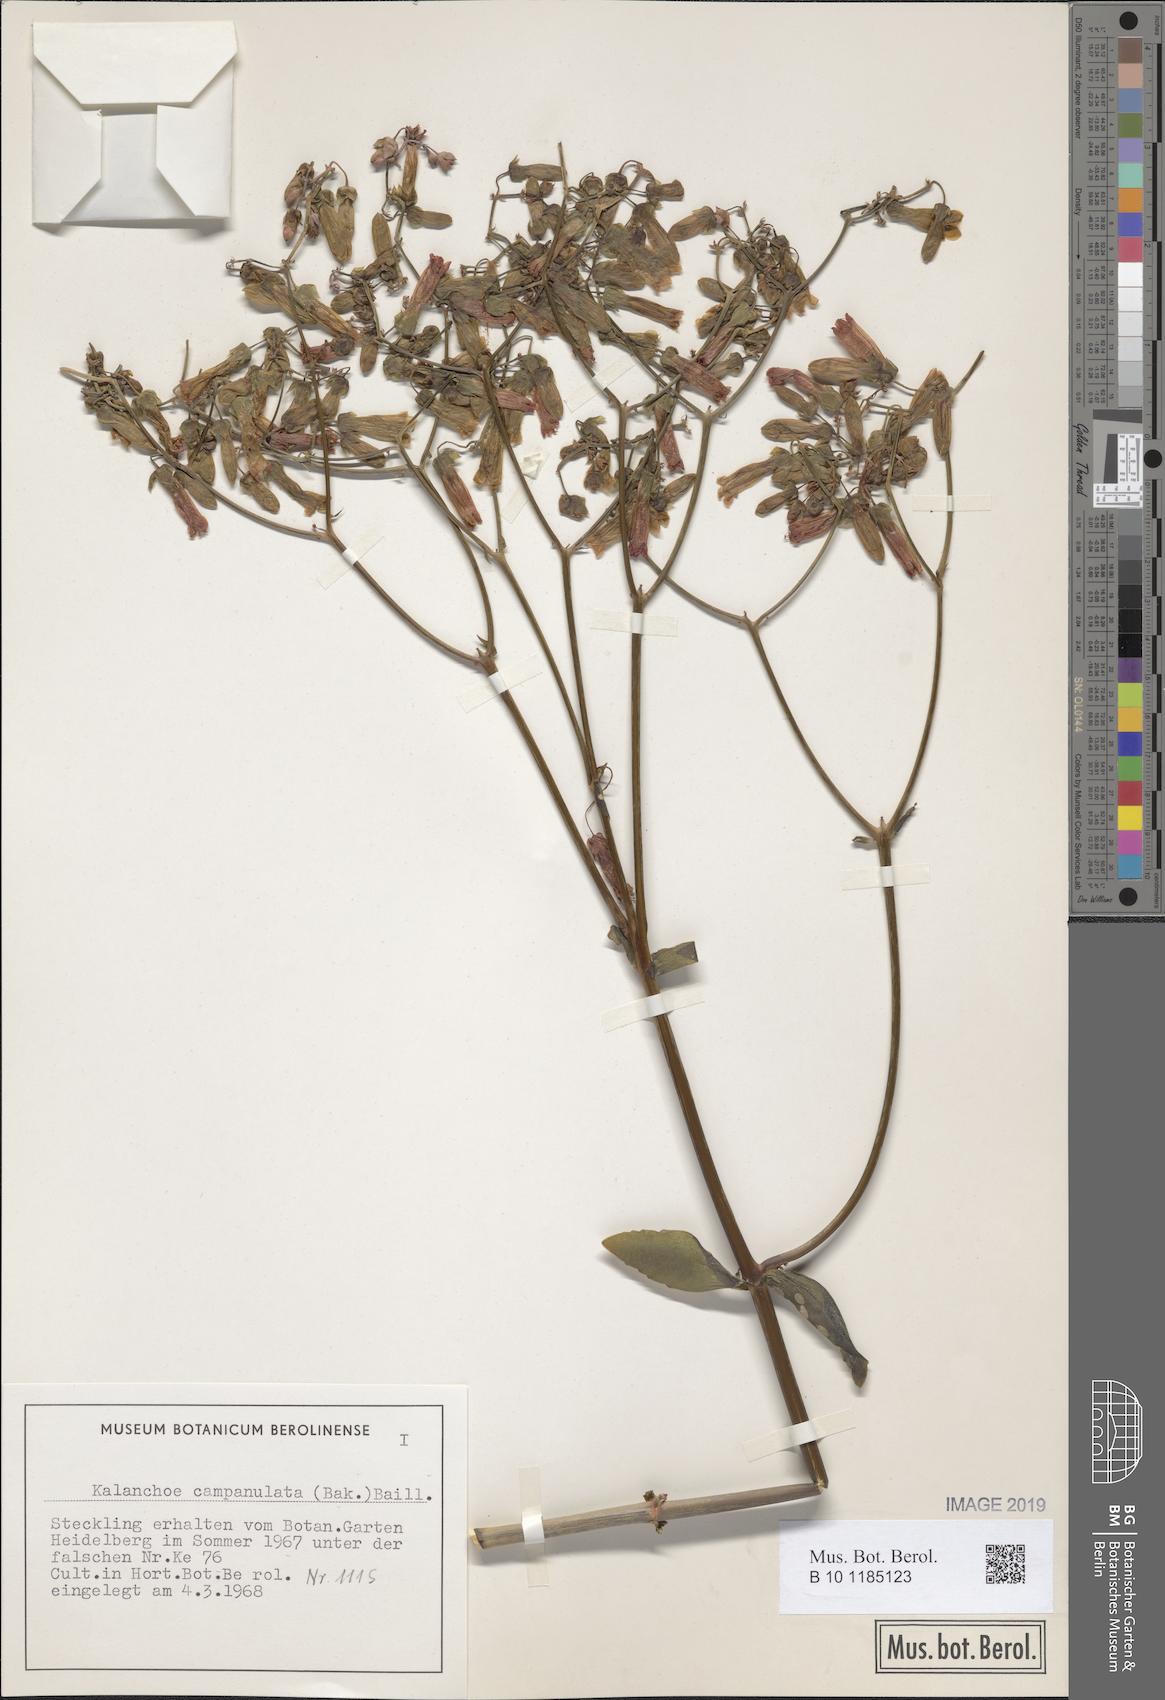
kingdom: Plantae
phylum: Tracheophyta
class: Magnoliopsida
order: Saxifragales
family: Crassulaceae
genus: Kalanchoe
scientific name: Kalanchoe campanulata
